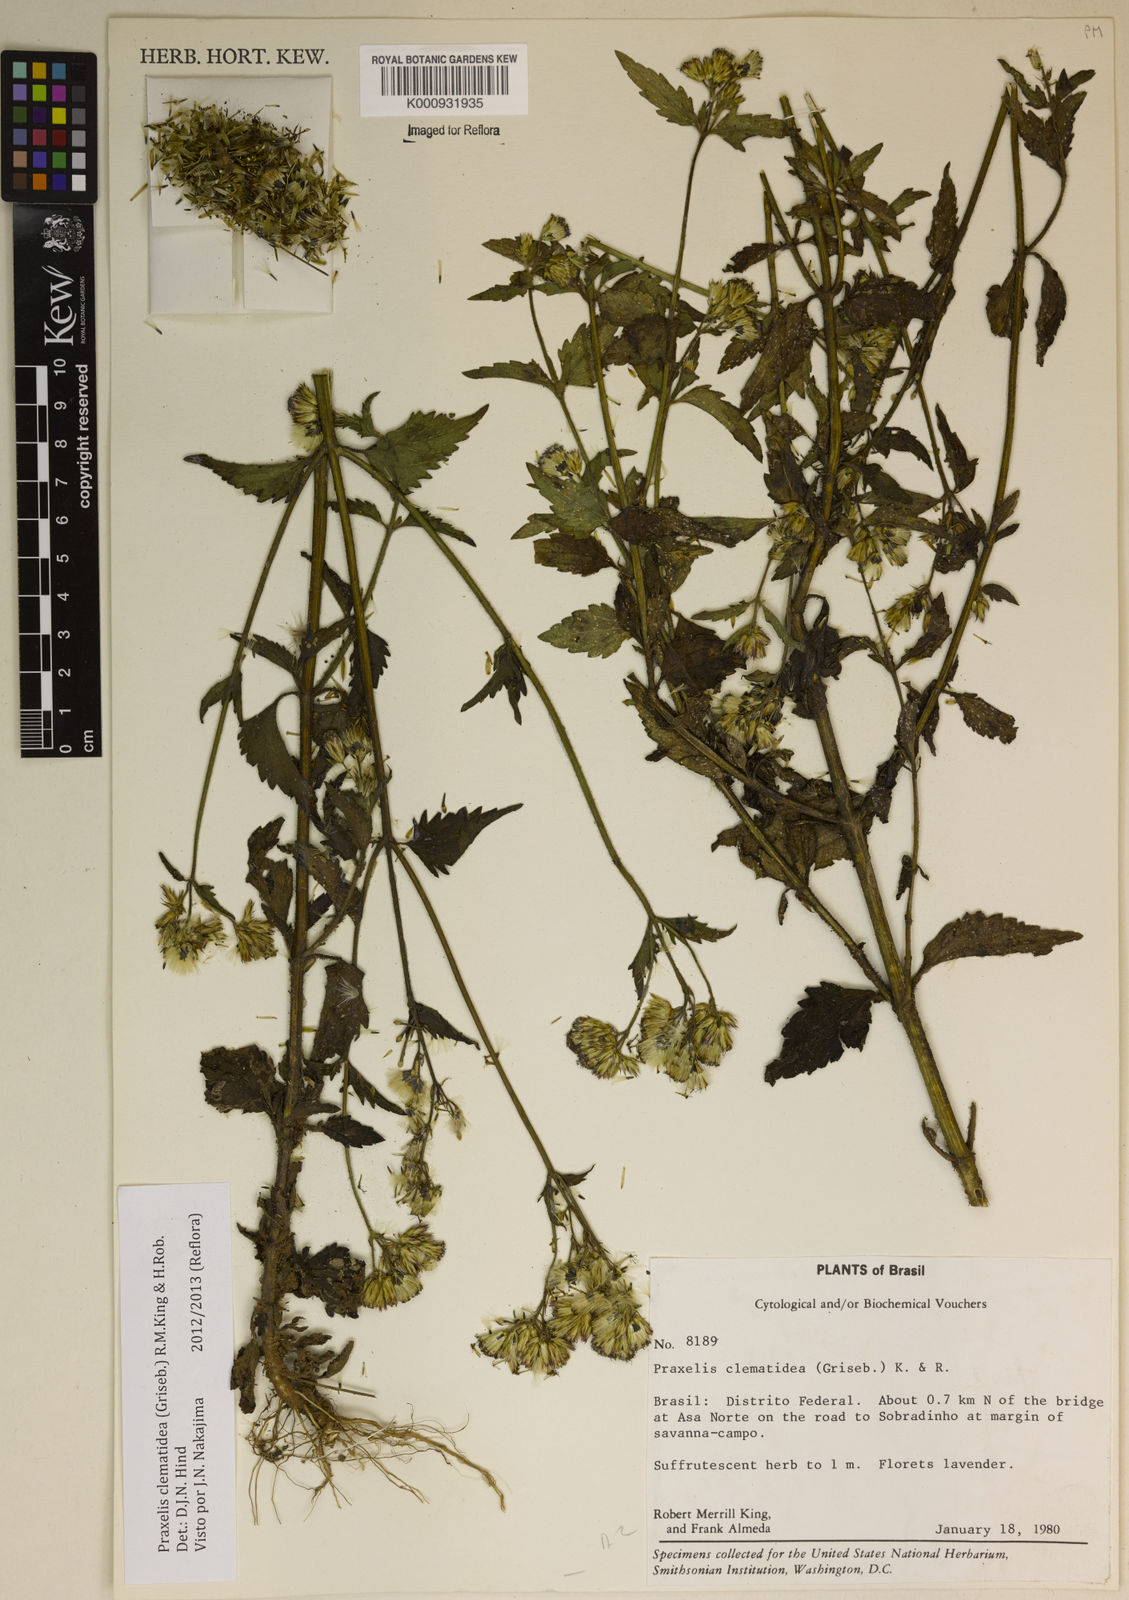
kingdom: Plantae
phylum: Tracheophyta
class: Magnoliopsida
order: Asterales
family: Asteraceae
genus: Praxelis
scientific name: Praxelis clematidea
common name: Praxelis
